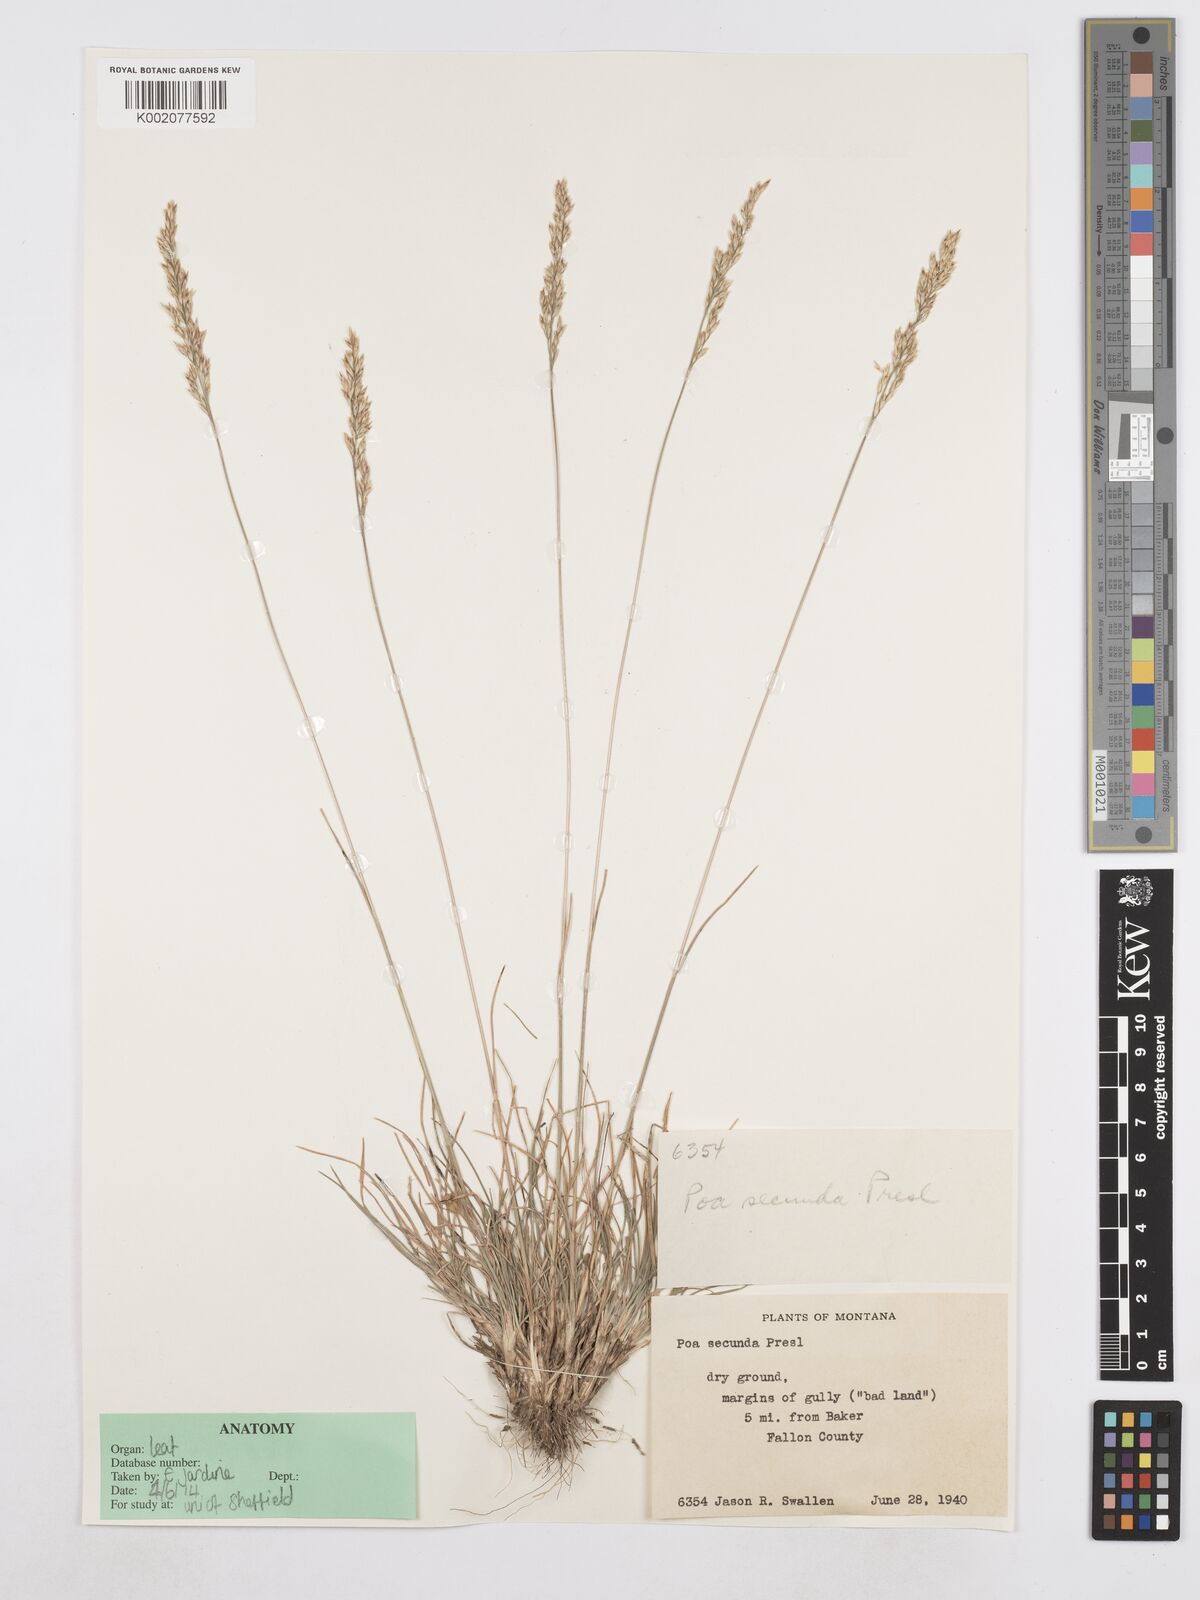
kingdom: Plantae
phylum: Tracheophyta
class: Liliopsida
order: Poales
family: Poaceae
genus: Poa
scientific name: Poa secunda
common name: Sandberg bluegrass
